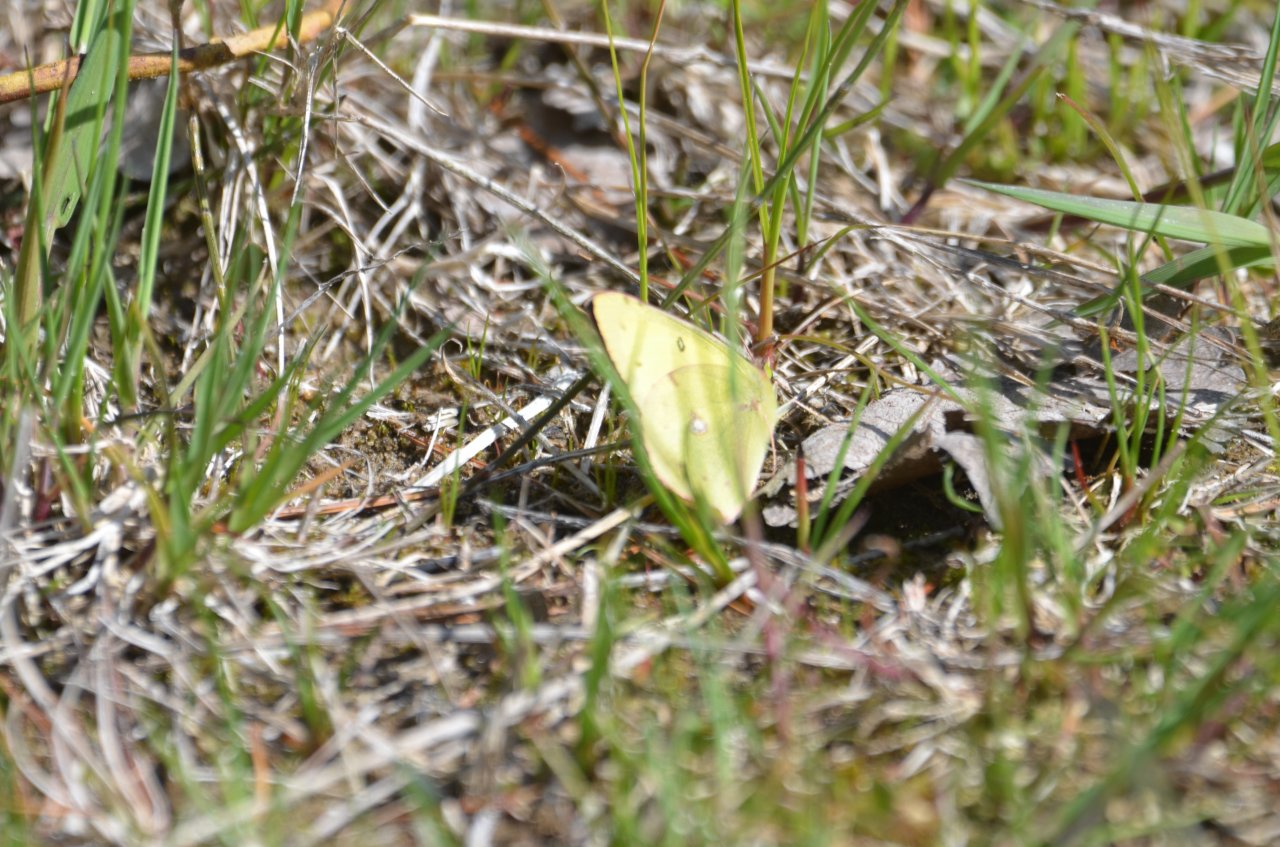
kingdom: Animalia
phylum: Arthropoda
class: Insecta
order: Lepidoptera
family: Pieridae
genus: Colias
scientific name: Colias philodice
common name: Clouded Sulphur
